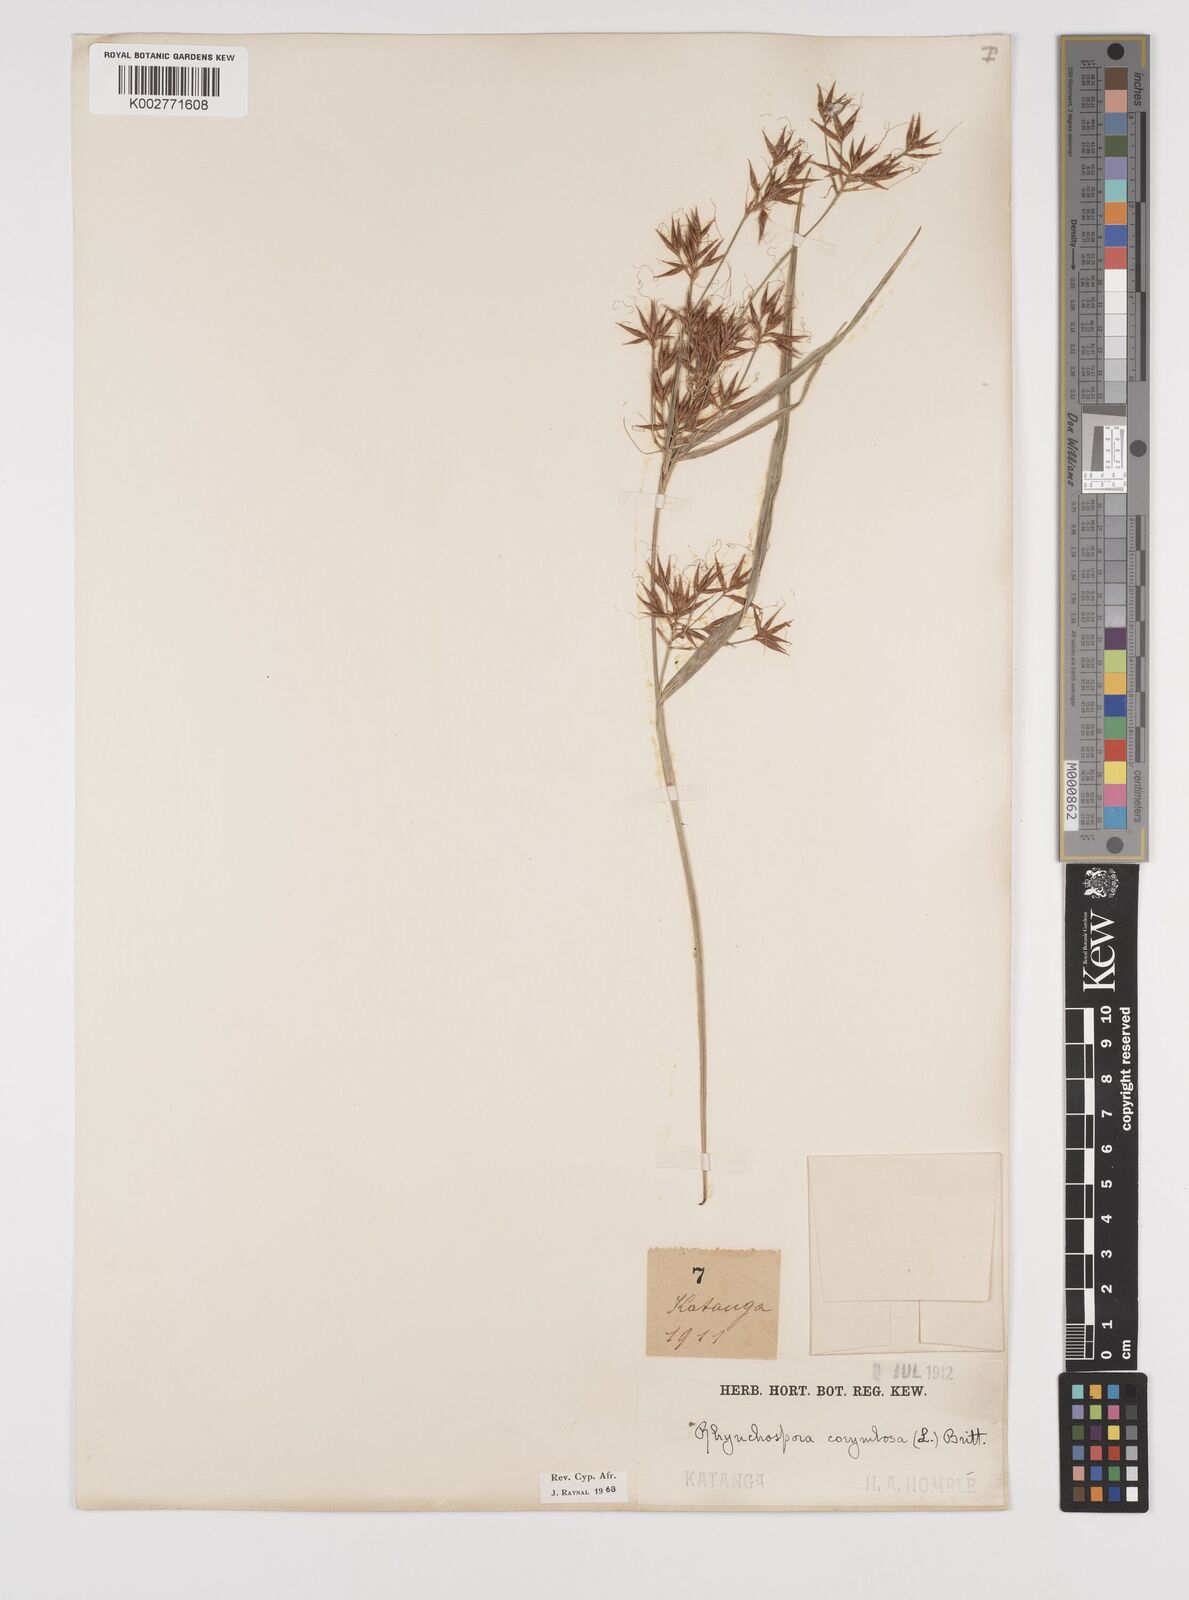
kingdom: Plantae
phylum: Tracheophyta
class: Liliopsida
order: Poales
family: Cyperaceae
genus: Rhynchospora
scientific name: Rhynchospora corymbosa
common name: Golden beak sedge
